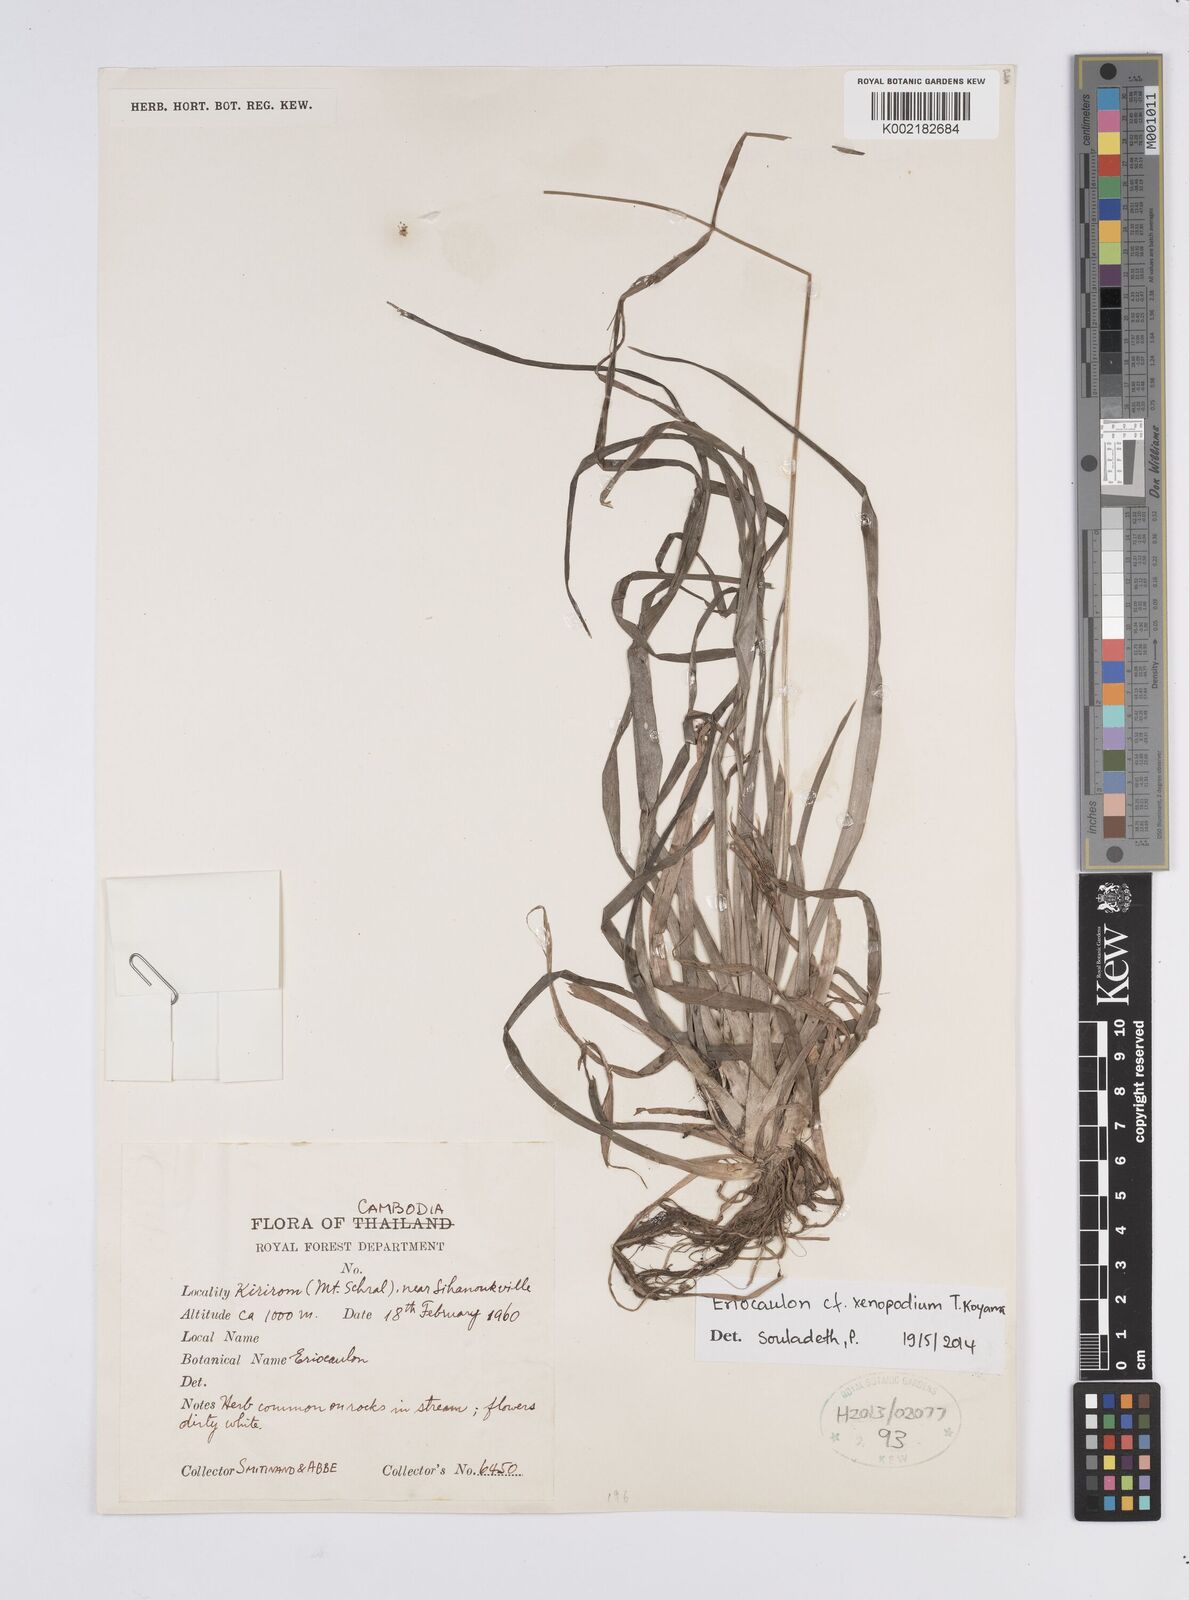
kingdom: Plantae
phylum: Tracheophyta
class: Liliopsida
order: Poales
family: Eriocaulaceae
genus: Eriocaulon
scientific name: Eriocaulon xenopodion
